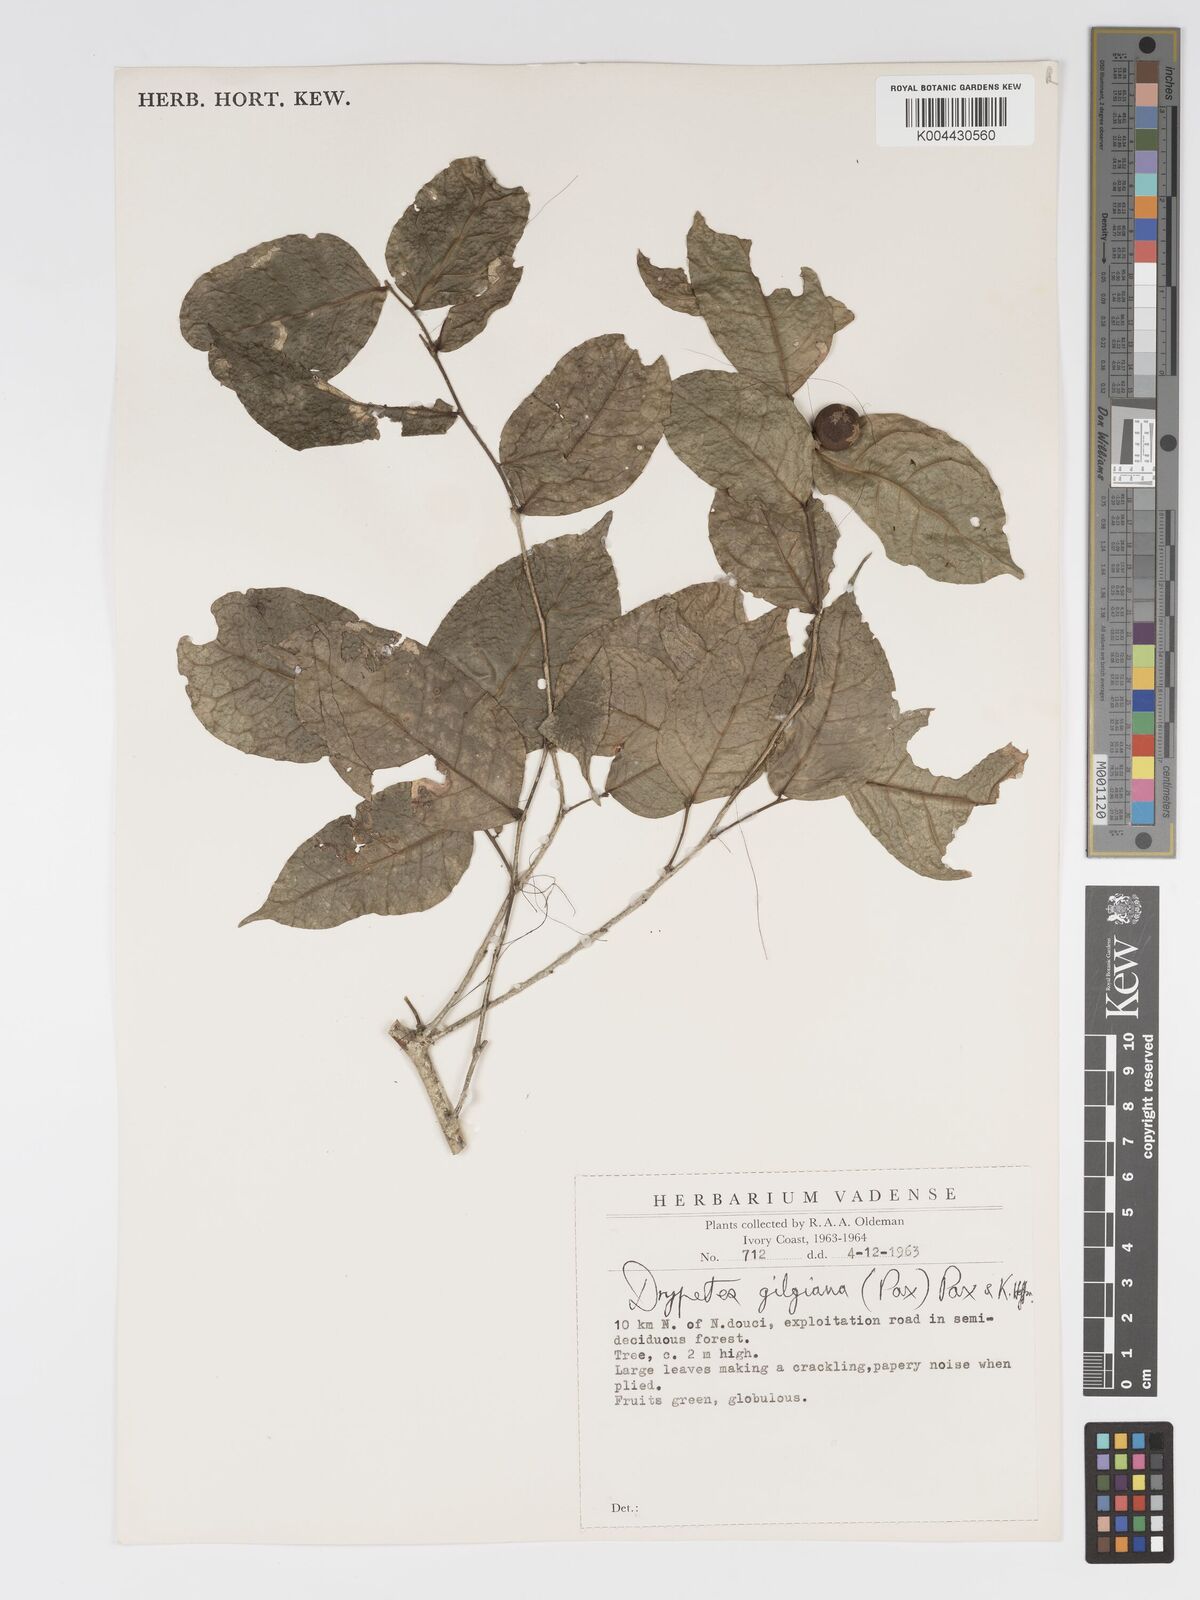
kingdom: Plantae
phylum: Tracheophyta
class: Magnoliopsida
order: Malpighiales
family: Putranjivaceae
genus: Drypetes
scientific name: Drypetes gilgiana
